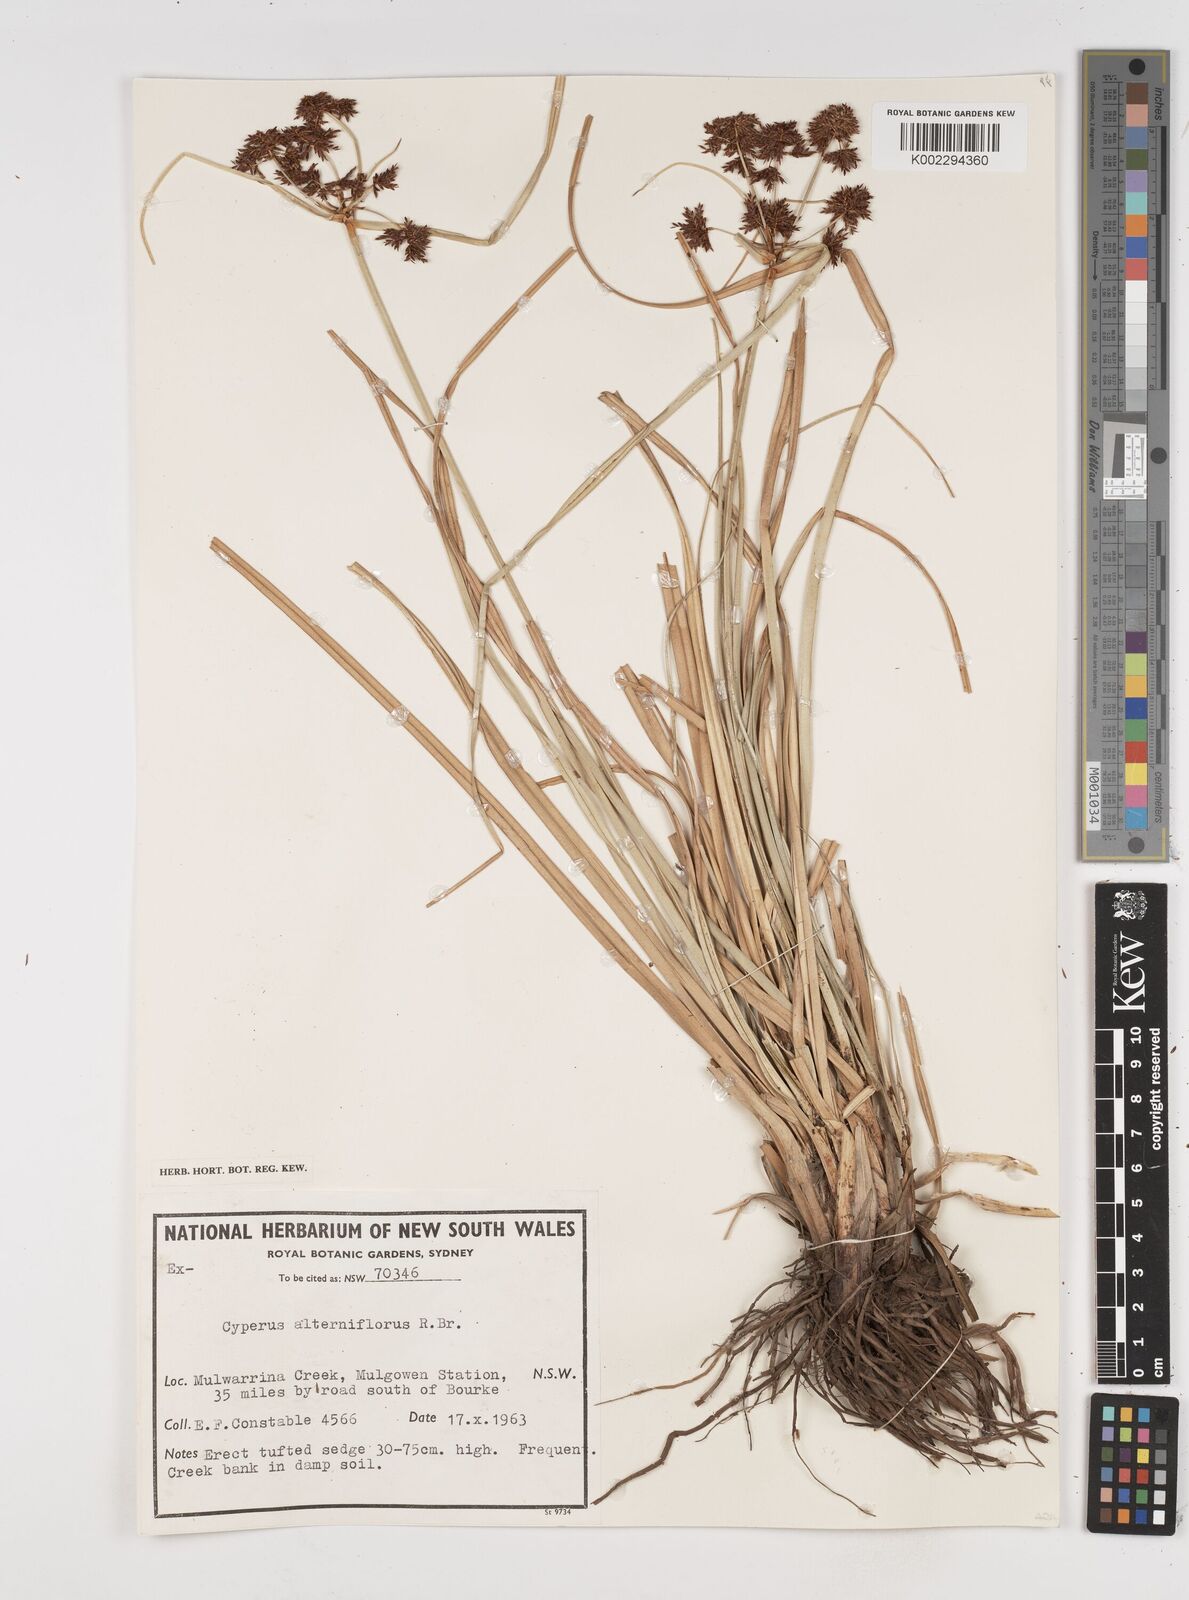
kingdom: Plantae
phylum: Tracheophyta
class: Liliopsida
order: Poales
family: Cyperaceae
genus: Cyperus
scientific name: Cyperus alterniflorus
